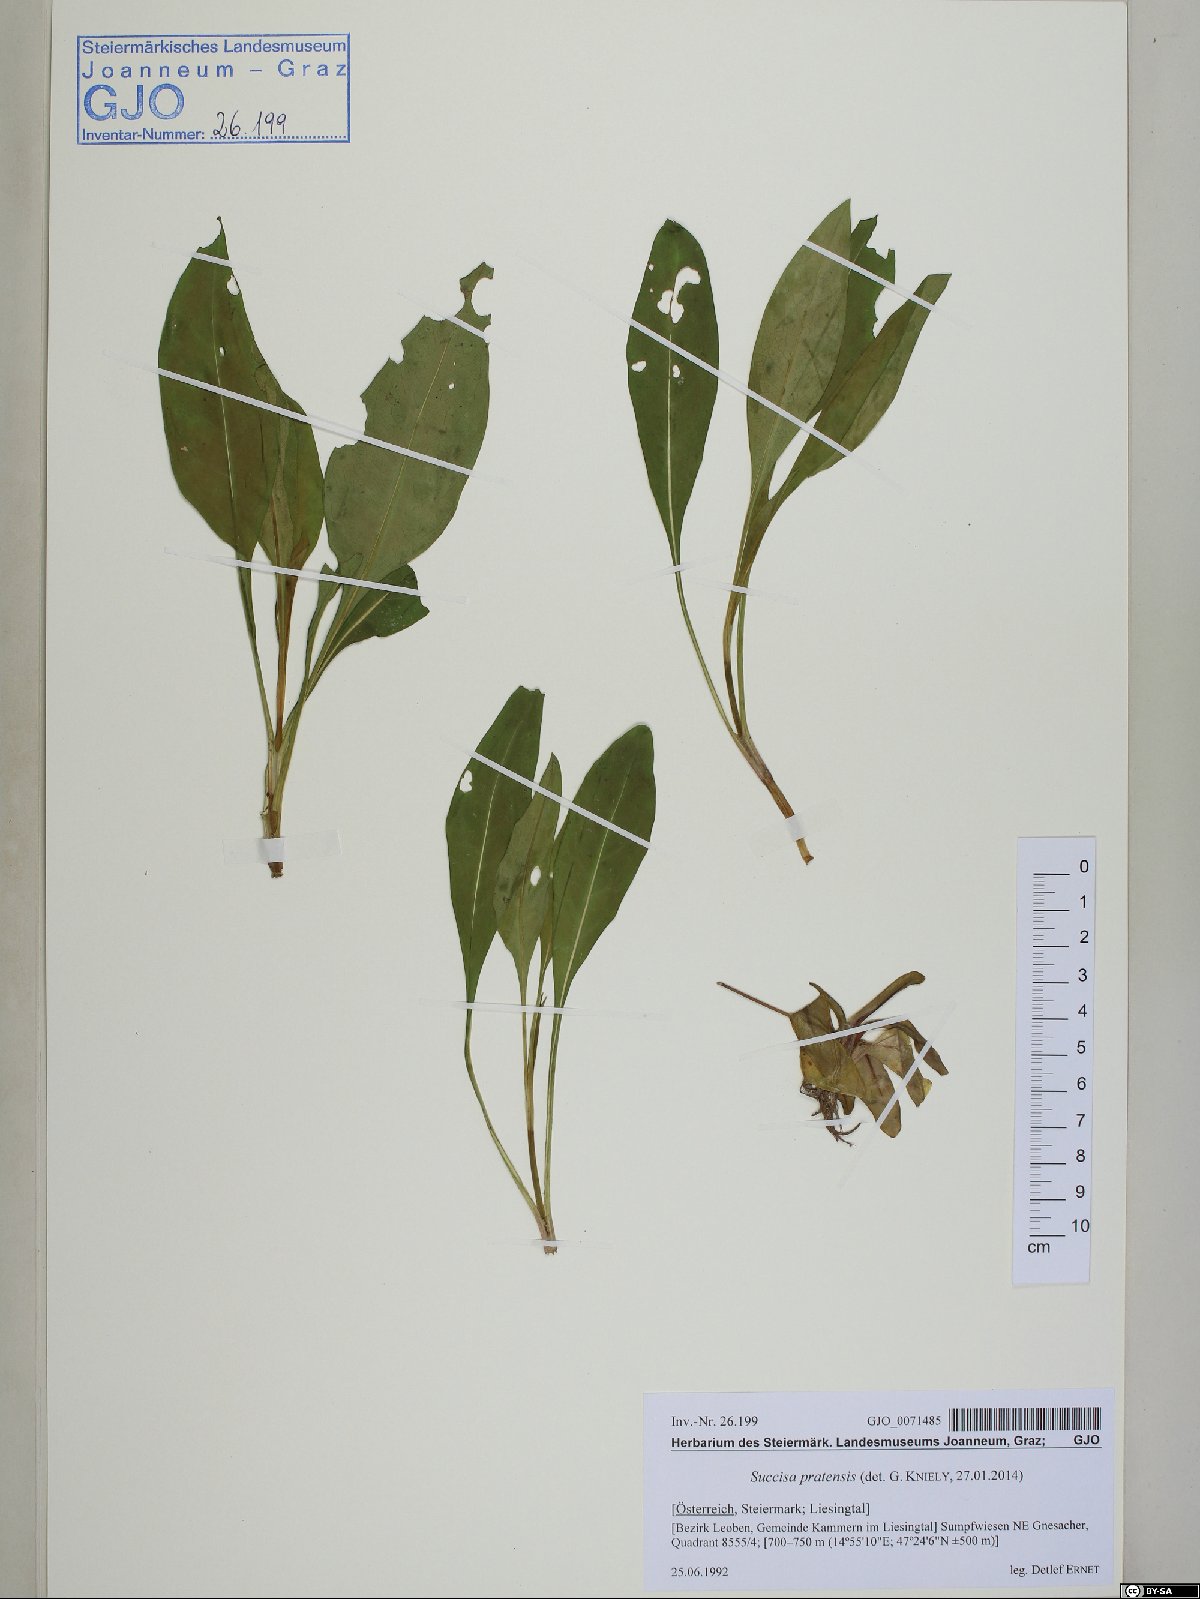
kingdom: Plantae
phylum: Tracheophyta
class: Magnoliopsida
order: Dipsacales
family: Caprifoliaceae
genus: Succisa
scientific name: Succisa pratensis
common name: Devil's-bit
